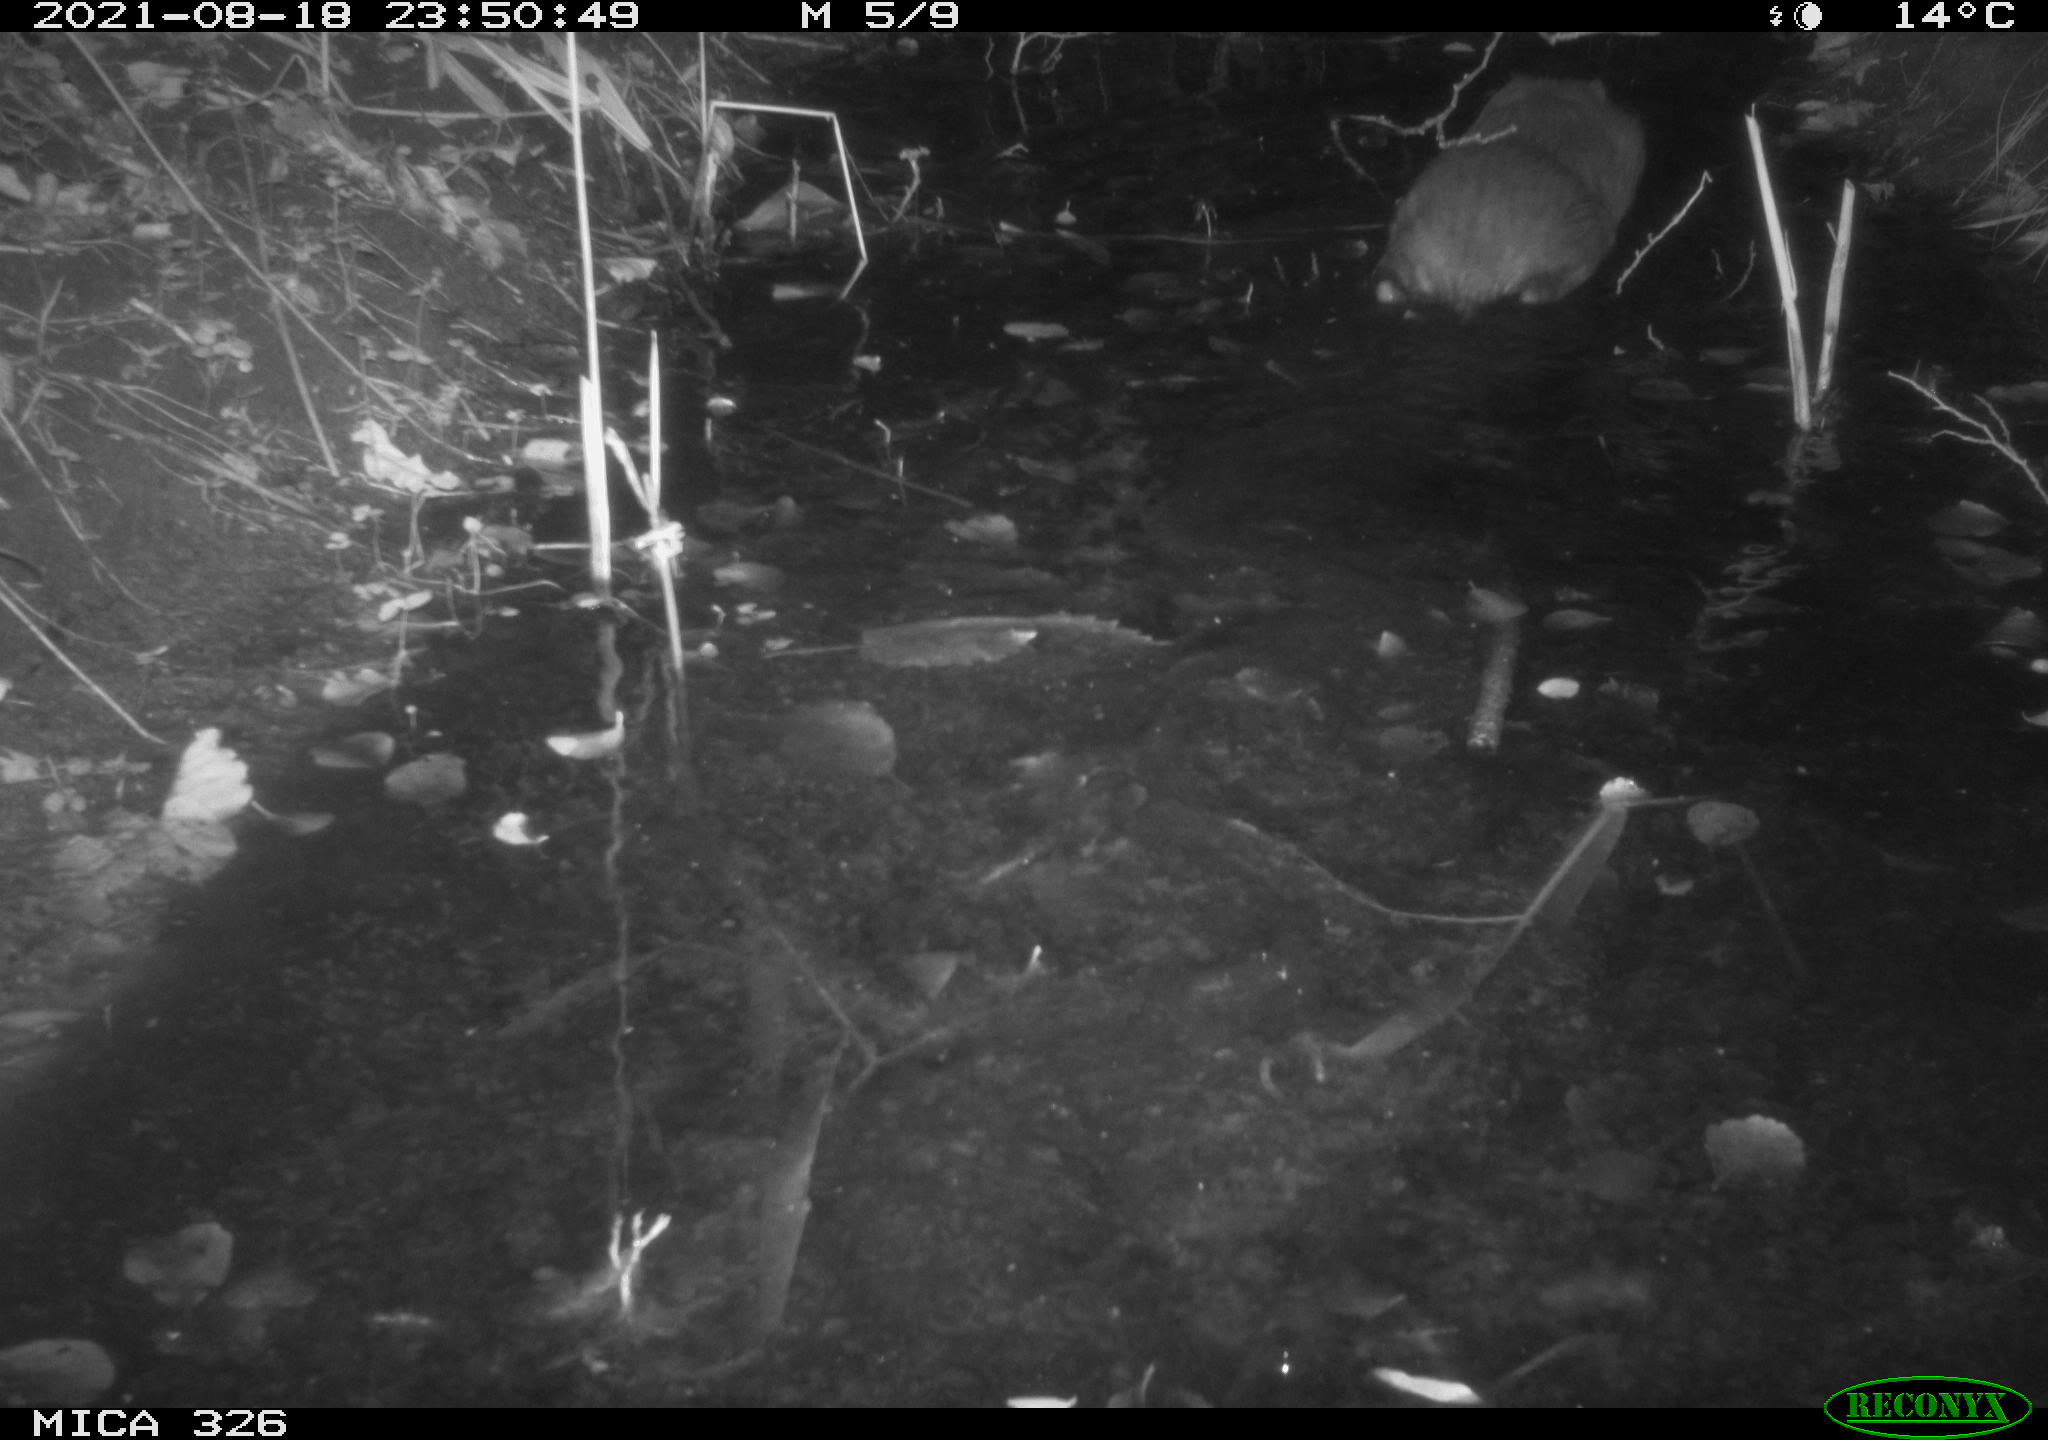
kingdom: Animalia
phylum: Chordata
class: Mammalia
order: Rodentia
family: Myocastoridae
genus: Myocastor
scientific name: Myocastor coypus
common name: Coypu
